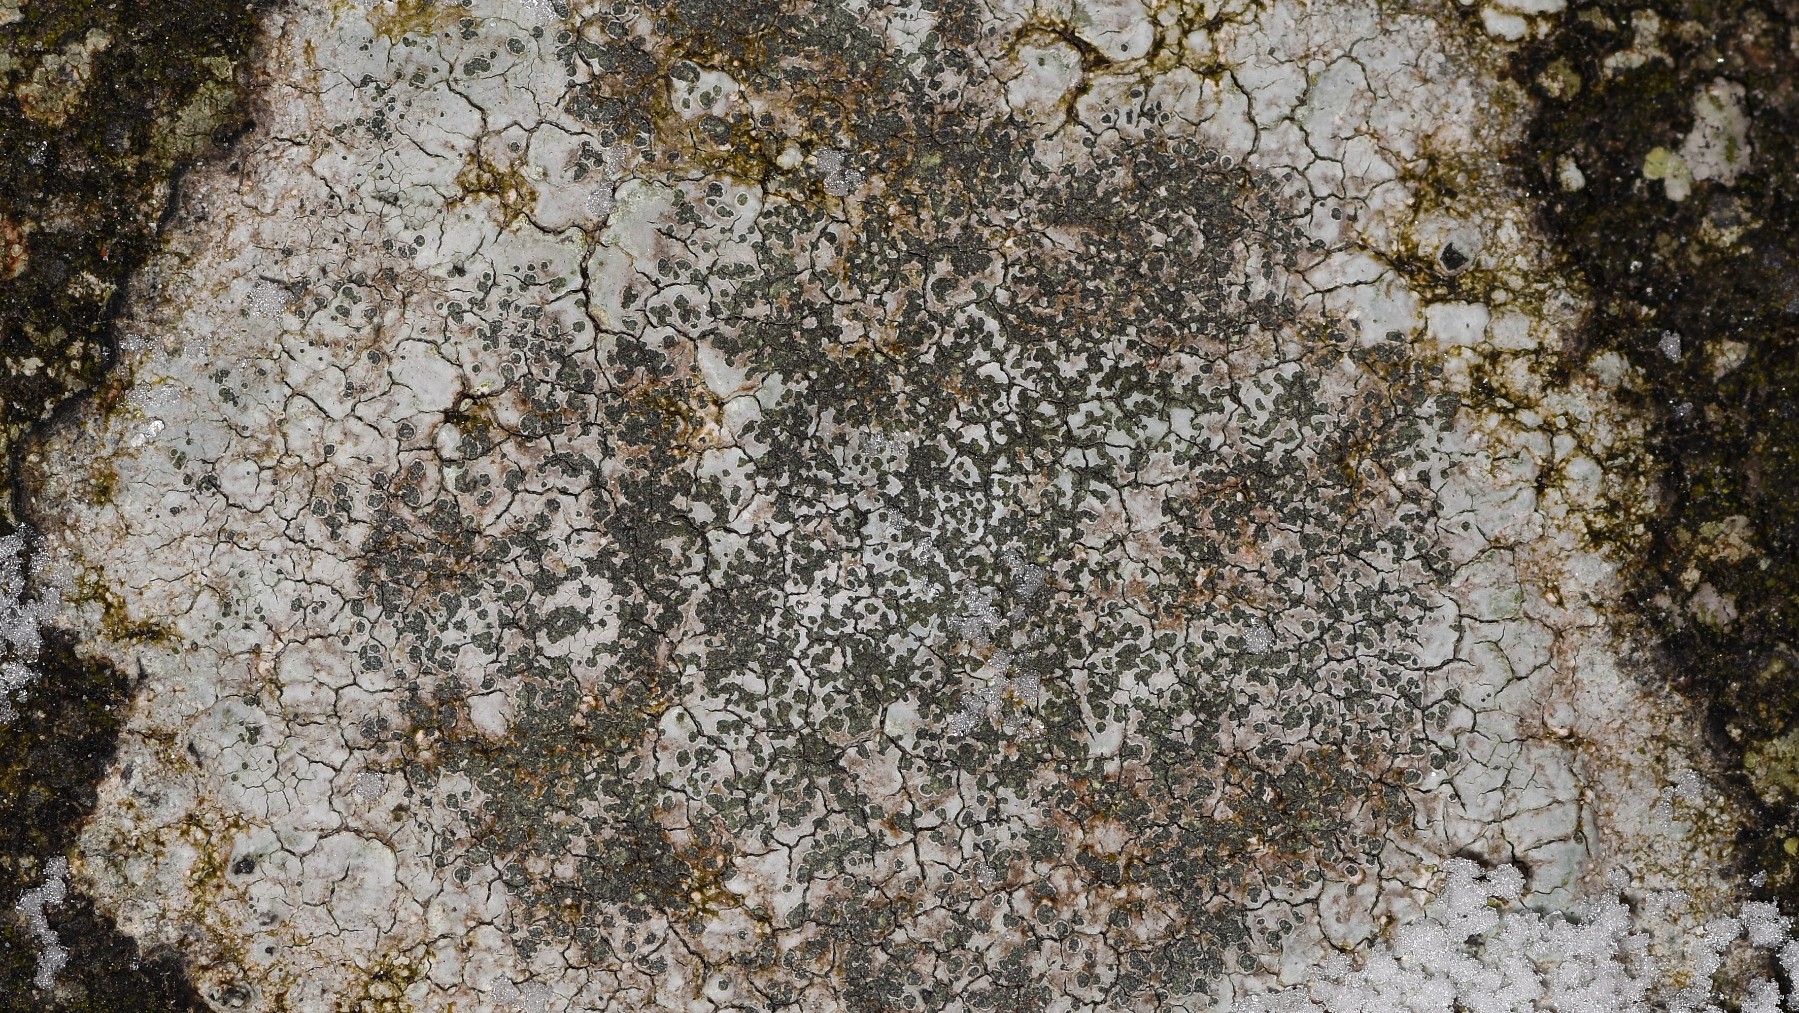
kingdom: Fungi
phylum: Ascomycota
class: Lecanoromycetes
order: Lecideales
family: Lecideaceae
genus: Porpidia
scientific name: Porpidia soredizodes
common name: sortkornet bredskivelav
